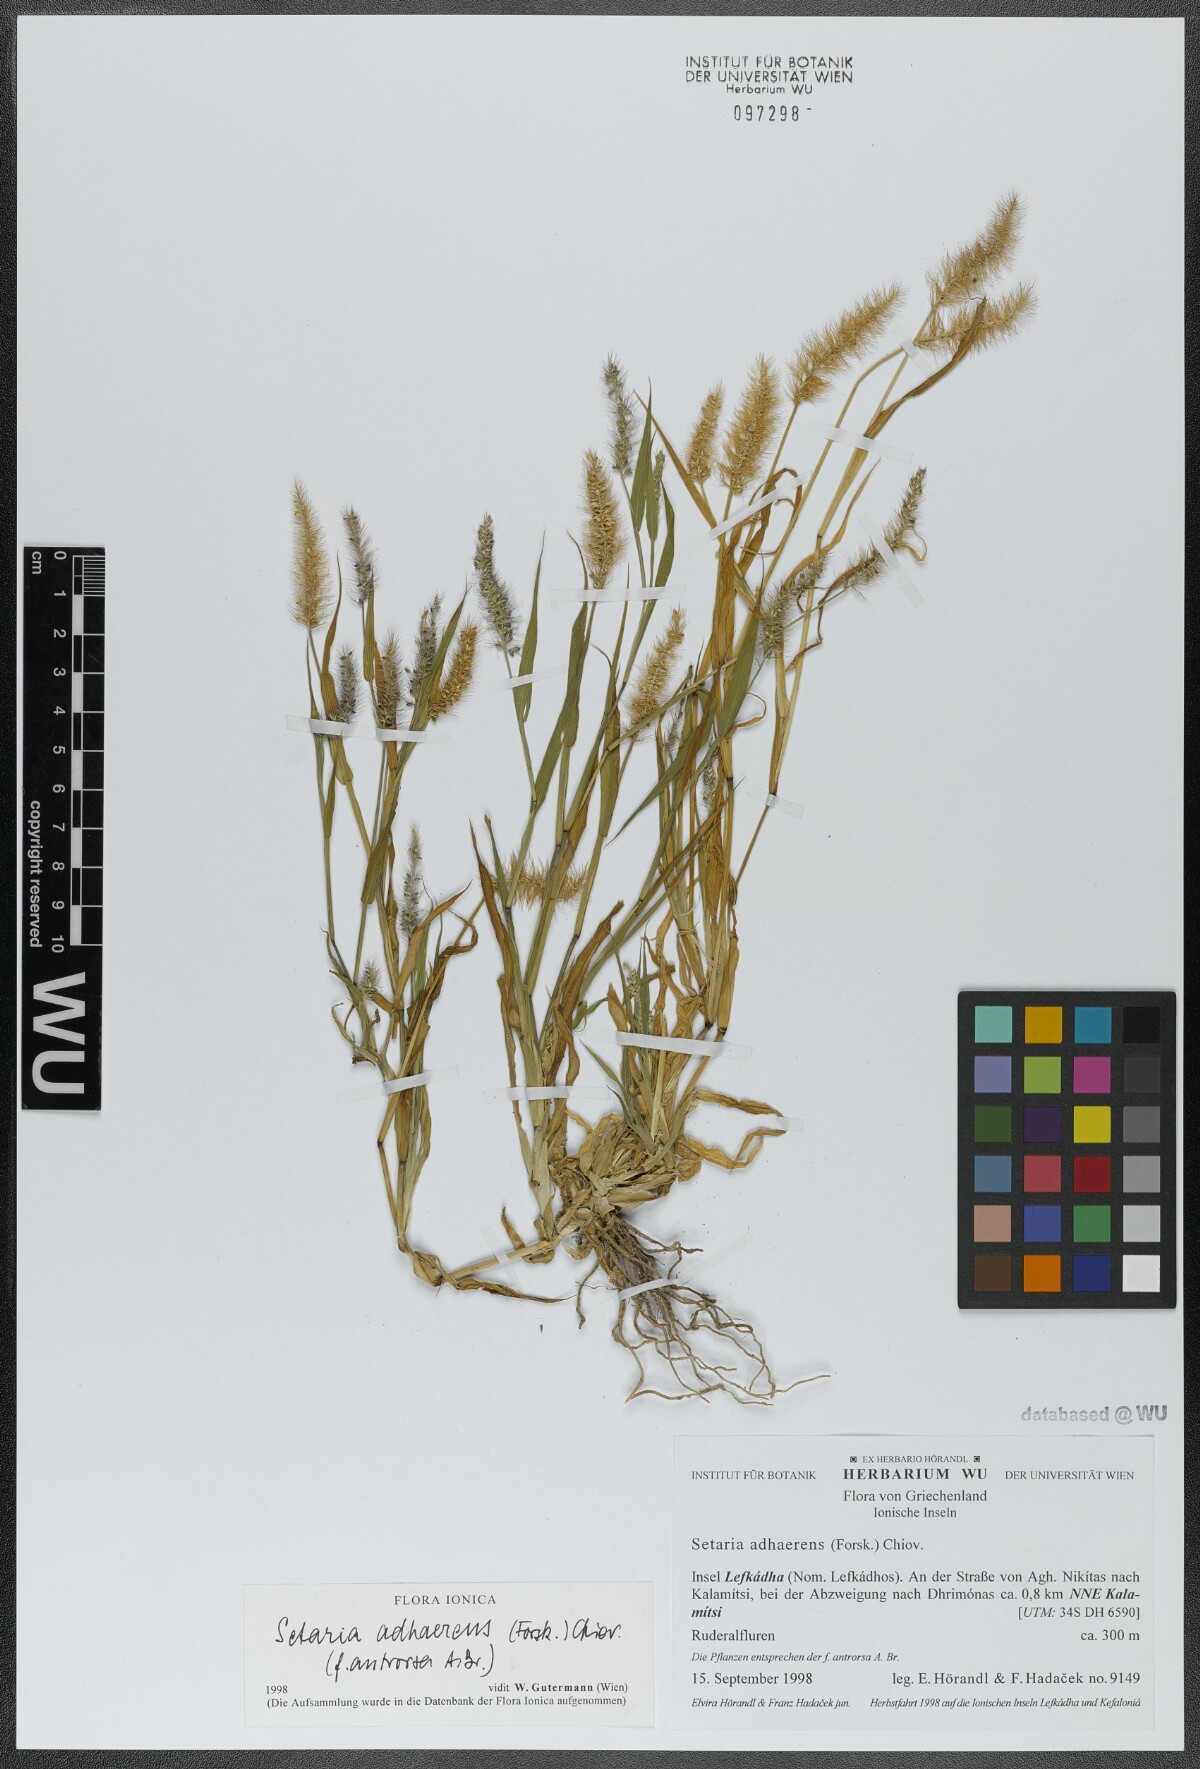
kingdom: Plantae
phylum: Tracheophyta
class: Liliopsida
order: Poales
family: Poaceae
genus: Setaria
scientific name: Setaria adhaerens
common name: Adherent bristle-grass
